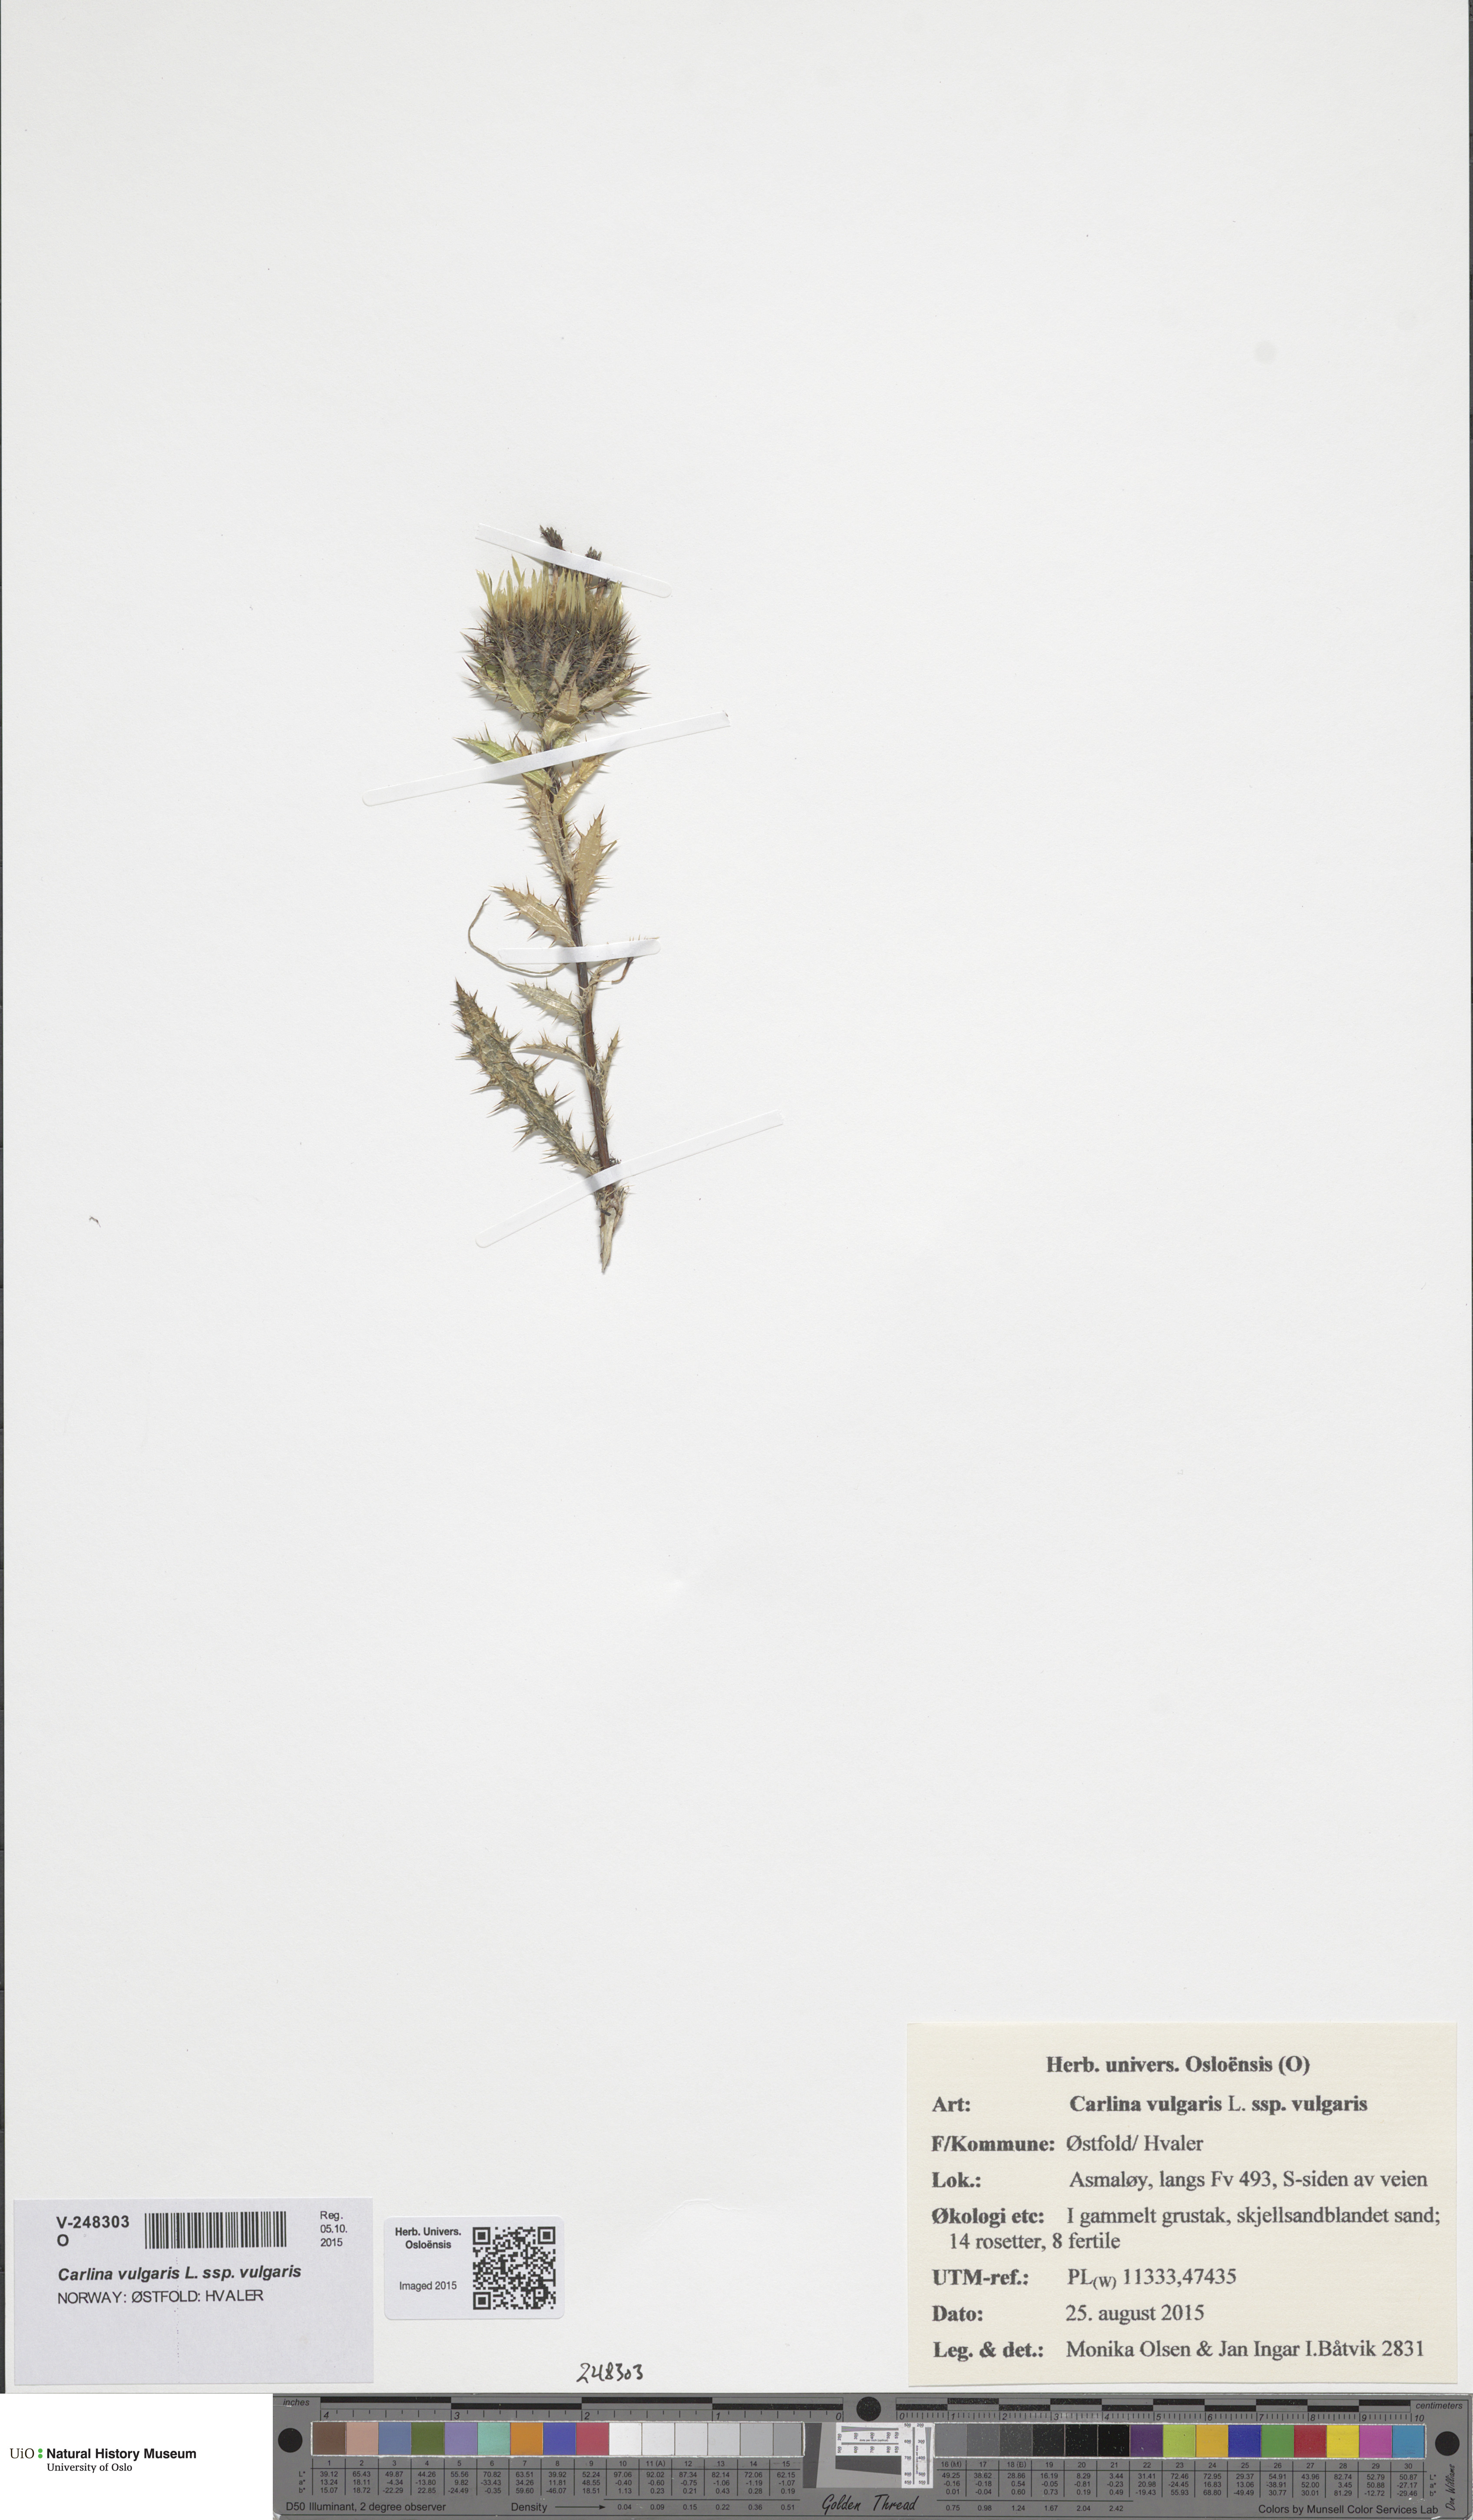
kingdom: Plantae
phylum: Tracheophyta
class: Magnoliopsida
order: Asterales
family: Asteraceae
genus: Carlina
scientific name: Carlina vulgaris
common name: Carline thistle
